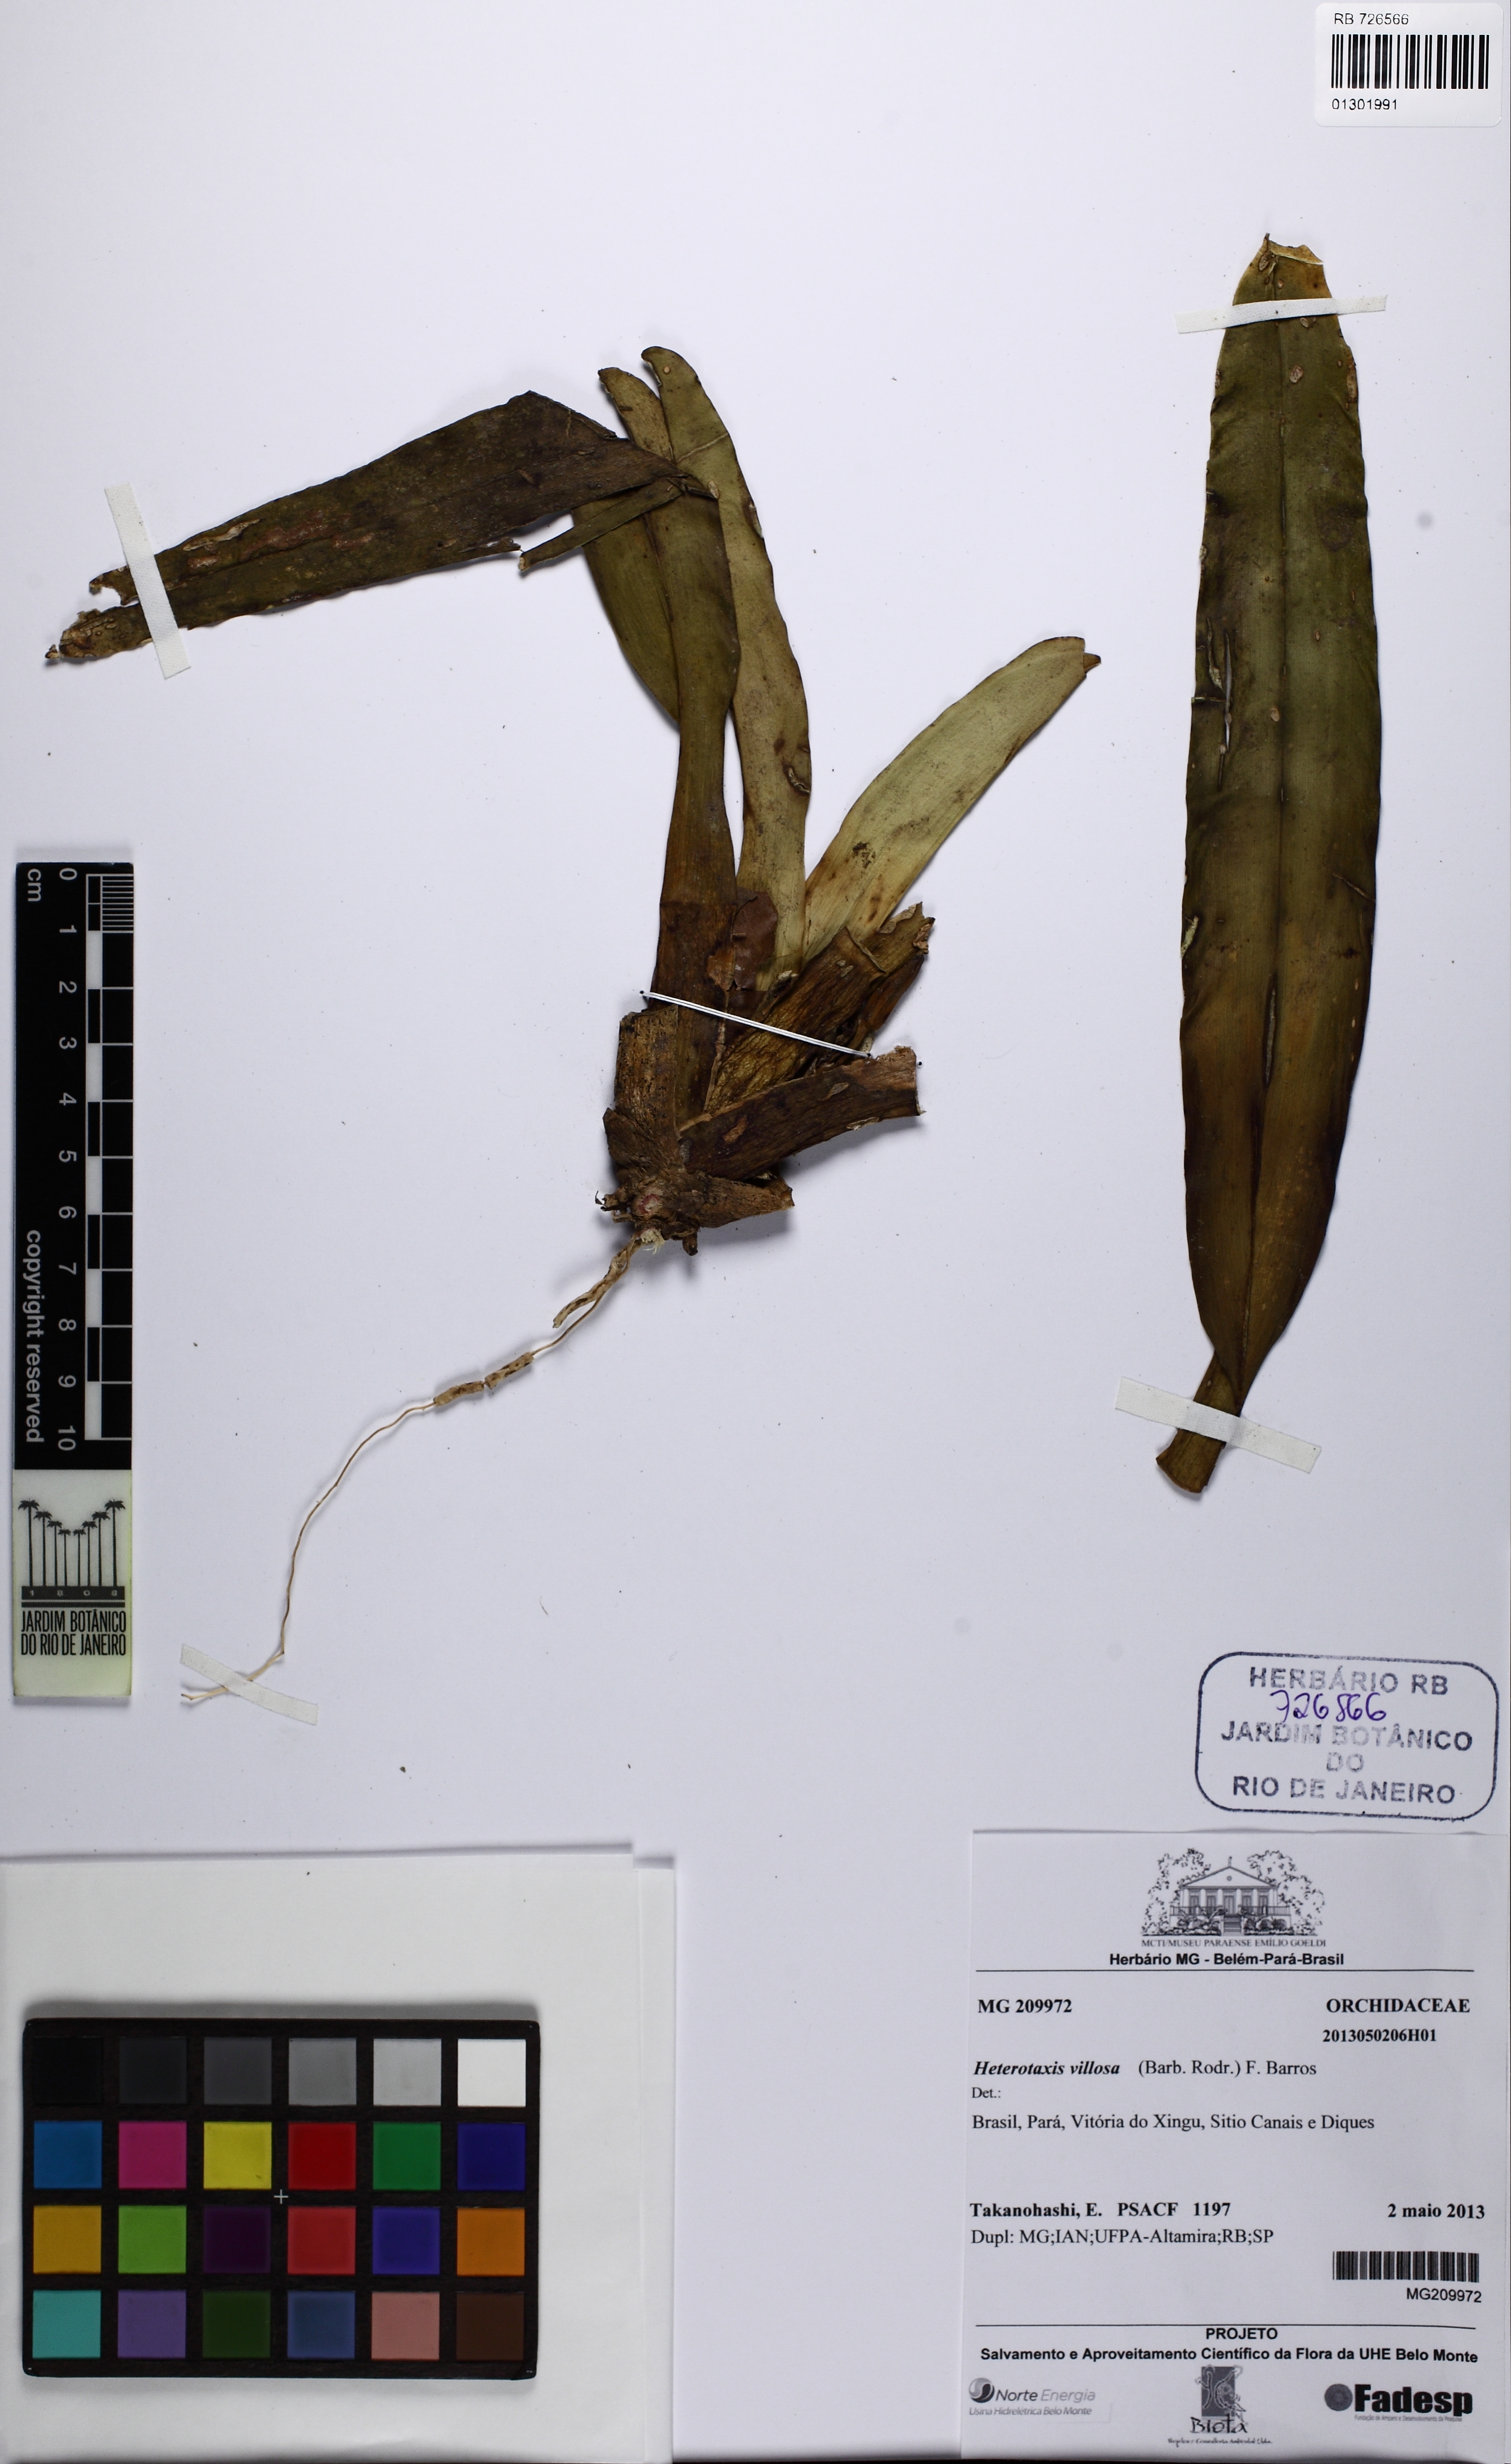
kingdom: Plantae
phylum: Tracheophyta
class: Liliopsida
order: Asparagales
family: Orchidaceae
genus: Maxillaria
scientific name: Maxillaria villosa
